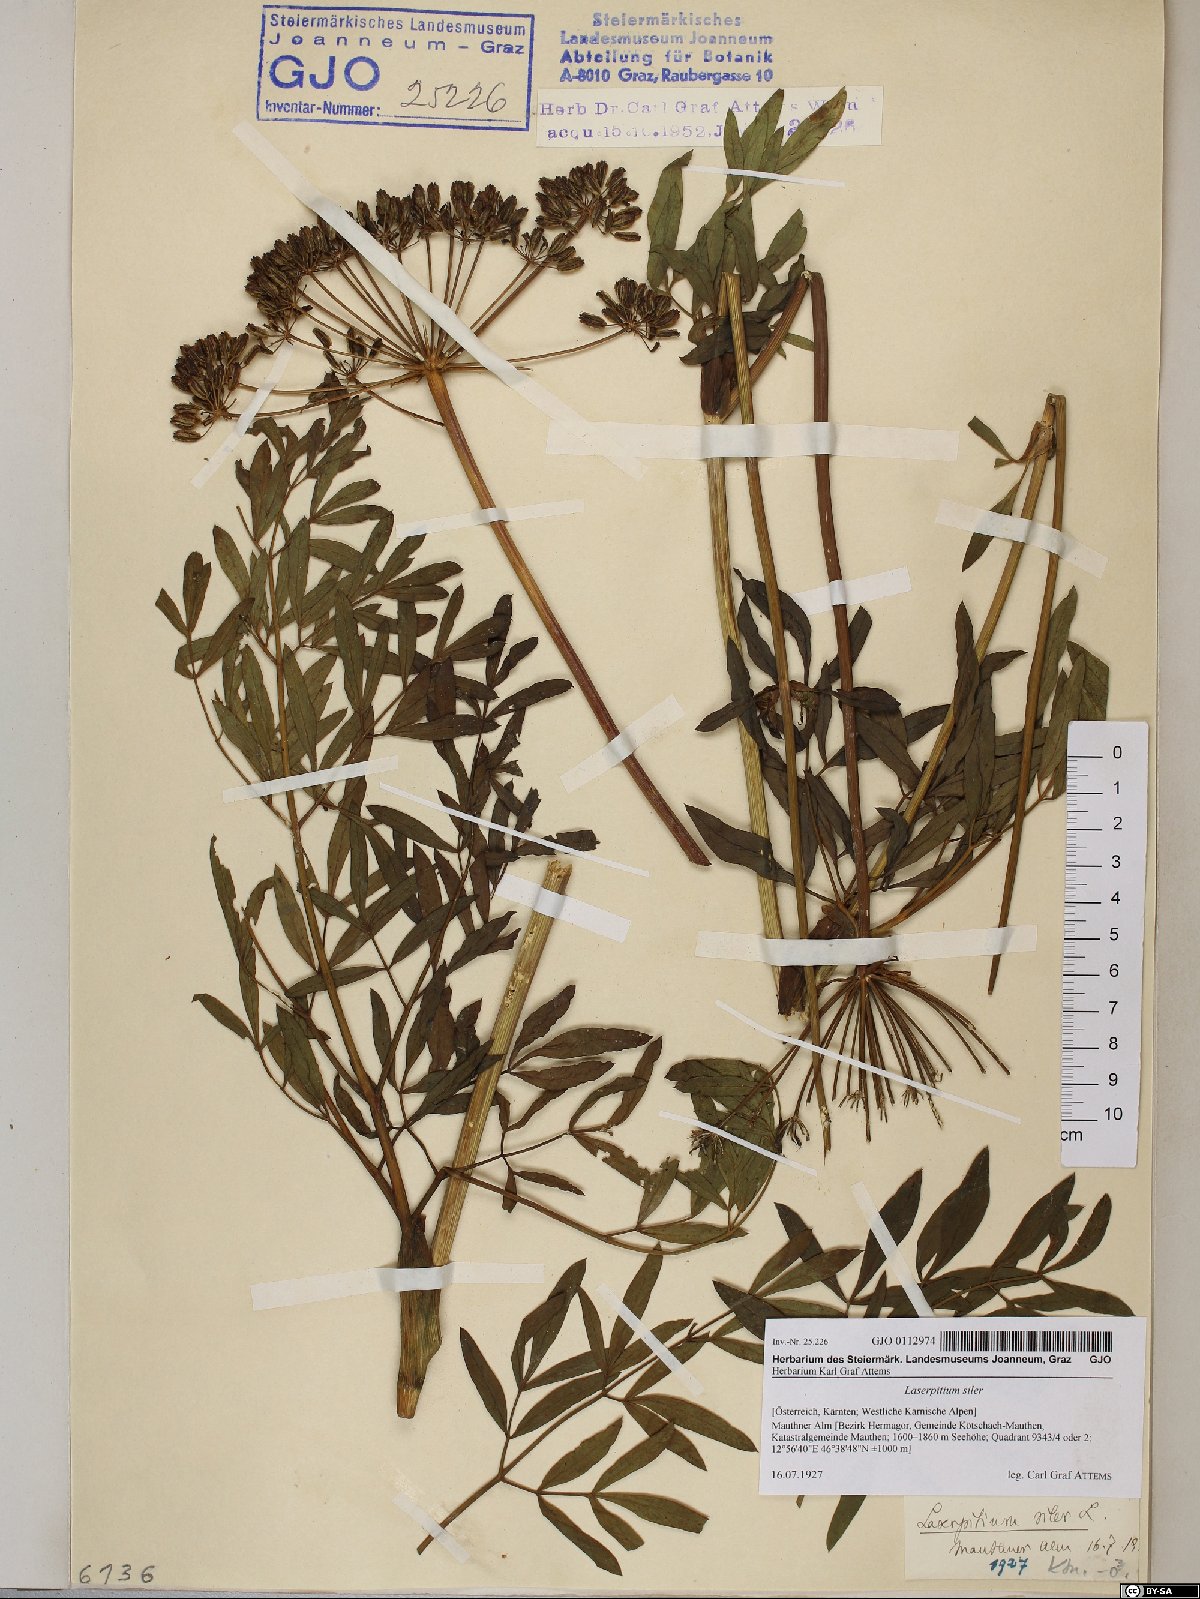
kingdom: Plantae
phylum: Tracheophyta
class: Magnoliopsida
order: Apiales
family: Apiaceae
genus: Siler
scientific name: Siler montanum
